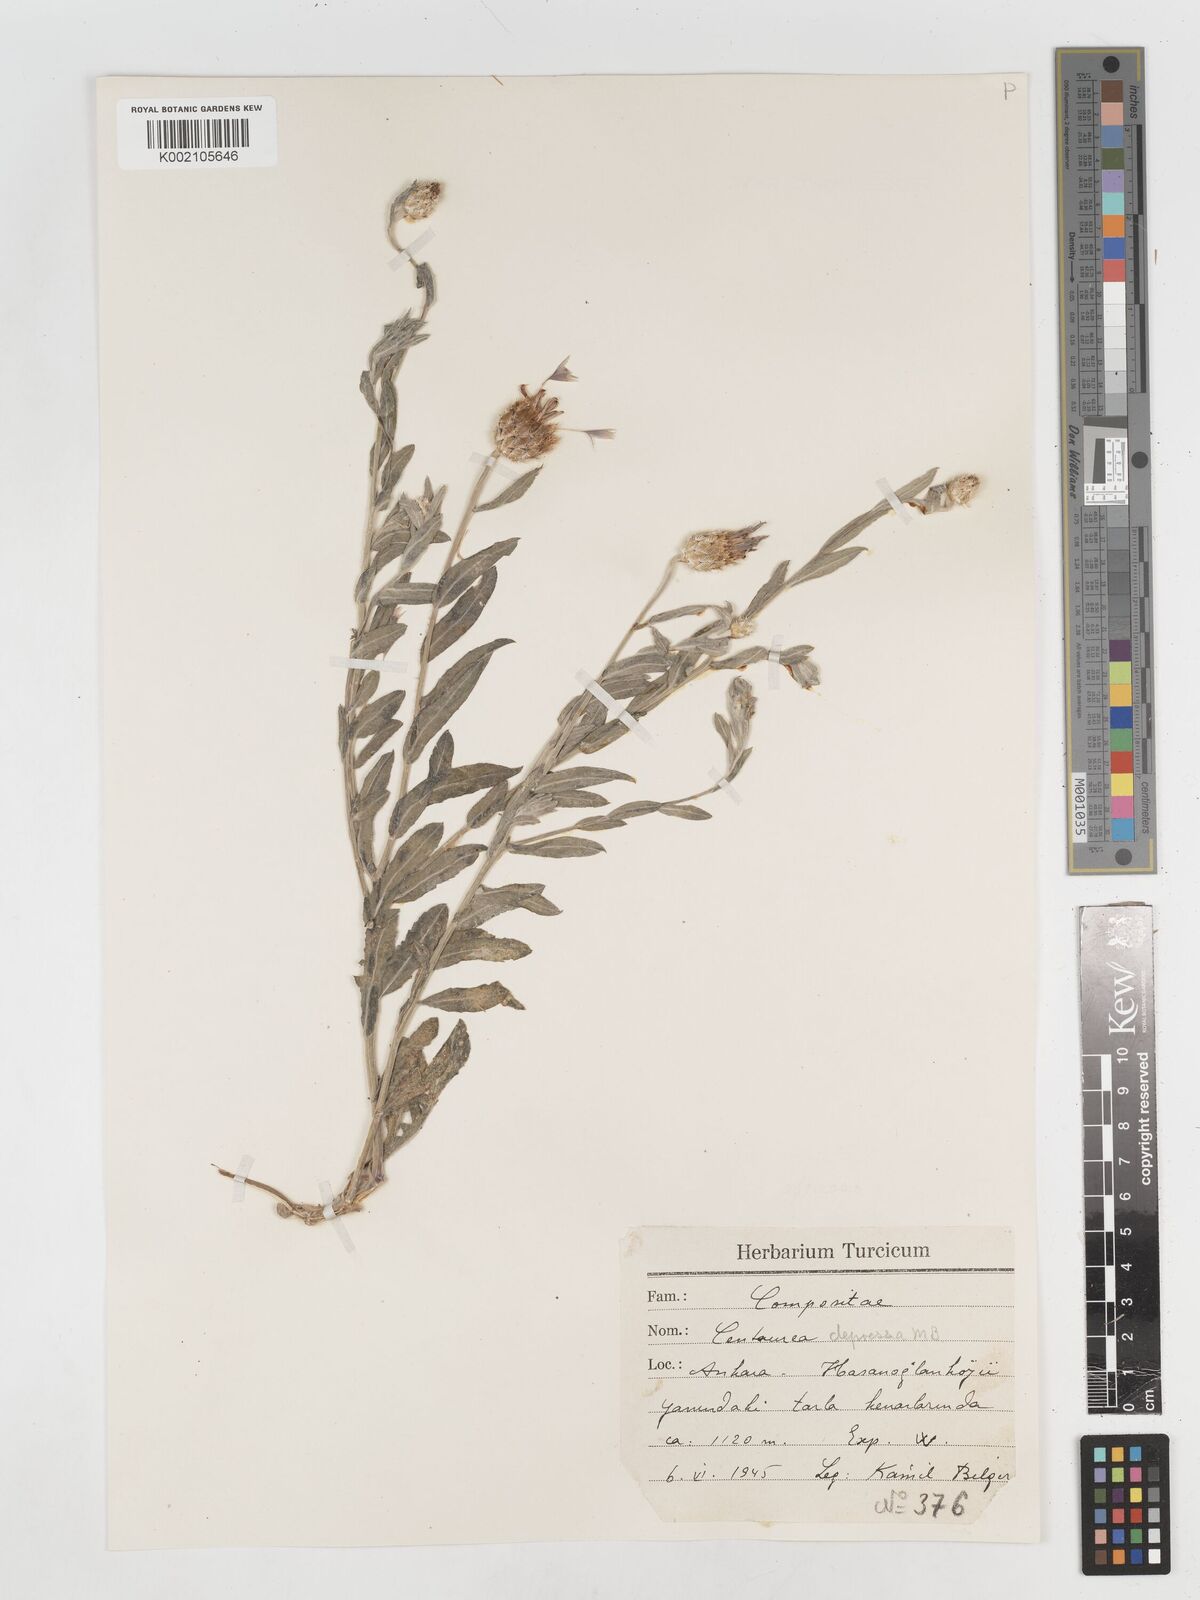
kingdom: Plantae
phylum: Tracheophyta
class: Magnoliopsida
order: Asterales
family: Asteraceae
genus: Centaurea
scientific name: Centaurea depressa
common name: Iranian knapweed
